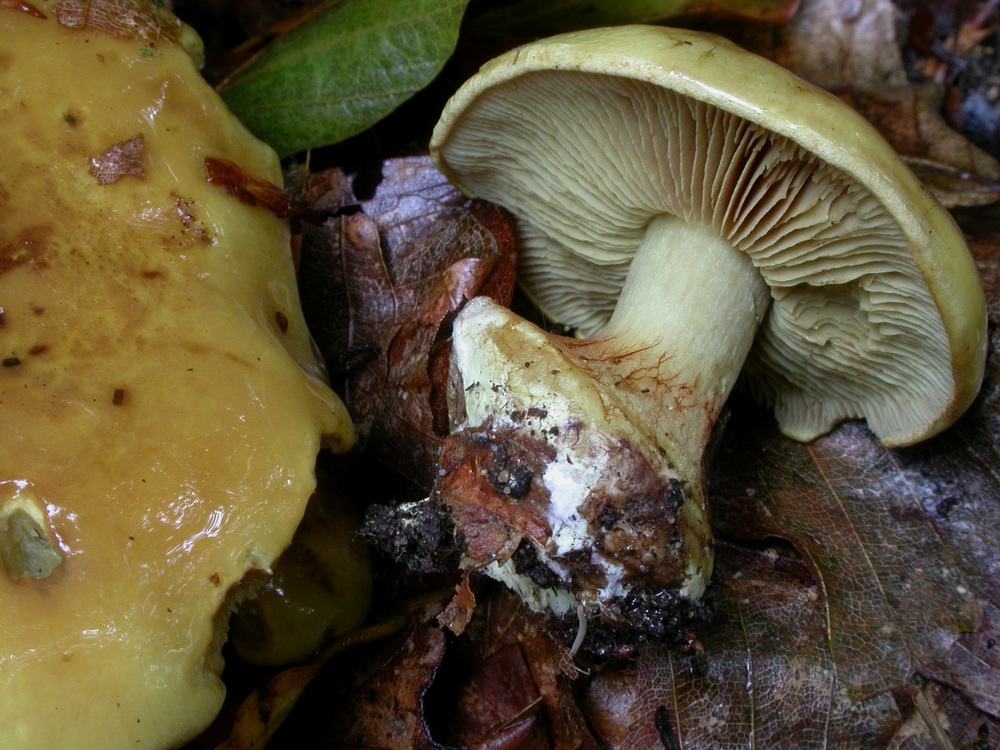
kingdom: Fungi
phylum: Basidiomycota
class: Agaricomycetes
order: Agaricales
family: Cortinariaceae
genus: Calonarius
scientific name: Calonarius citrinus
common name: citrongul slørhat
